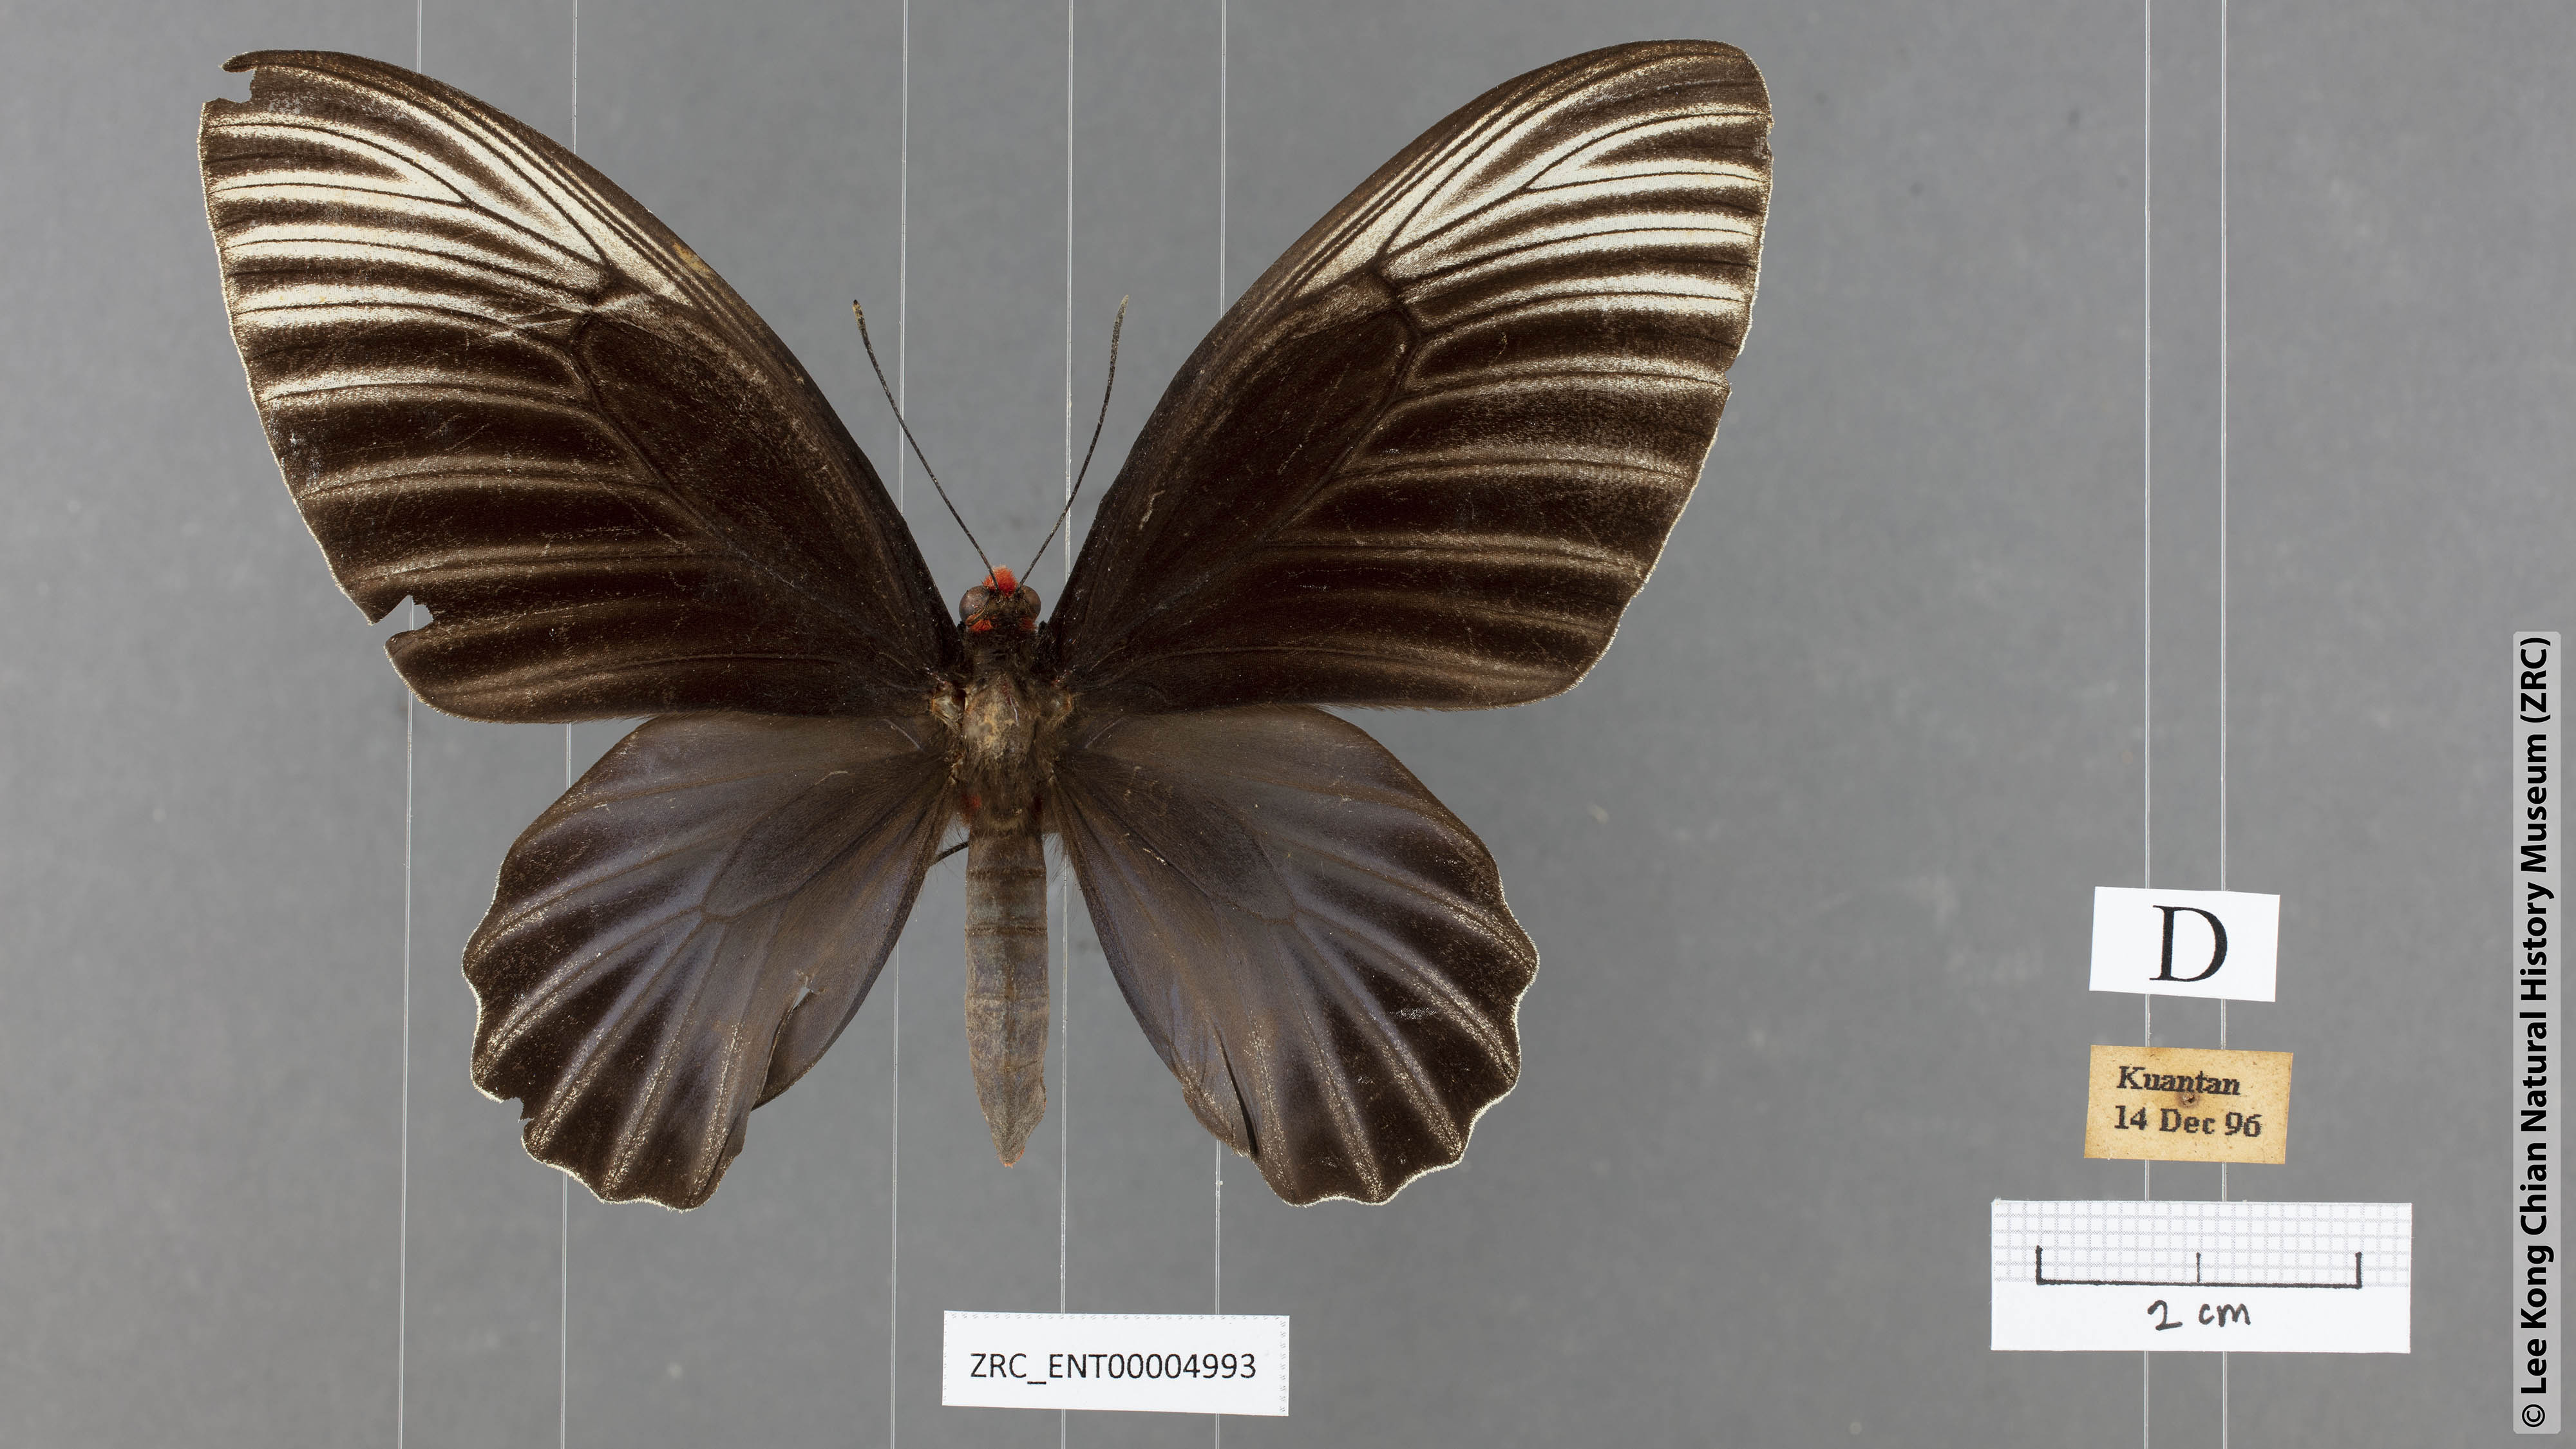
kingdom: Animalia
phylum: Arthropoda
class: Insecta
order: Lepidoptera
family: Papilionidae
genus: Atrophaneura
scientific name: Atrophaneura nox
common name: Malayan batwing
